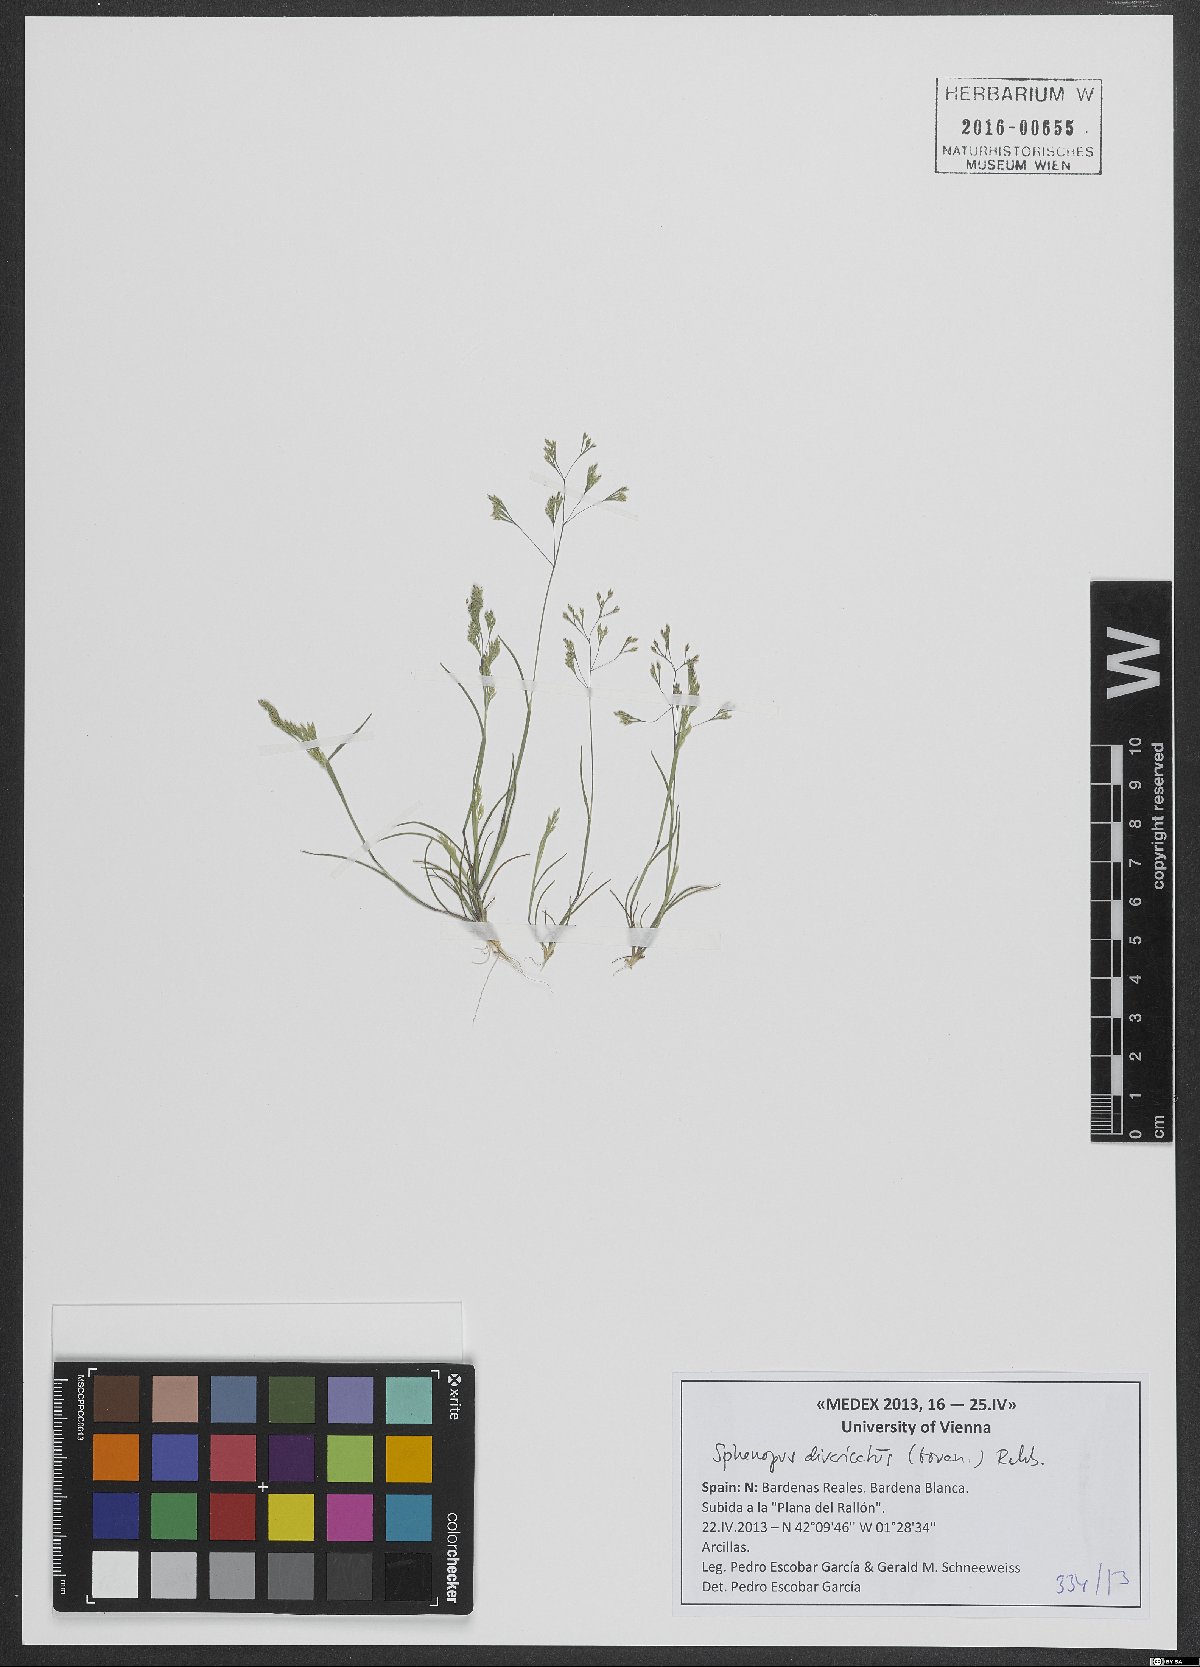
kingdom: Plantae
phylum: Tracheophyta
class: Liliopsida
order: Poales
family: Poaceae
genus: Sphenopus
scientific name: Sphenopus divaricatus
